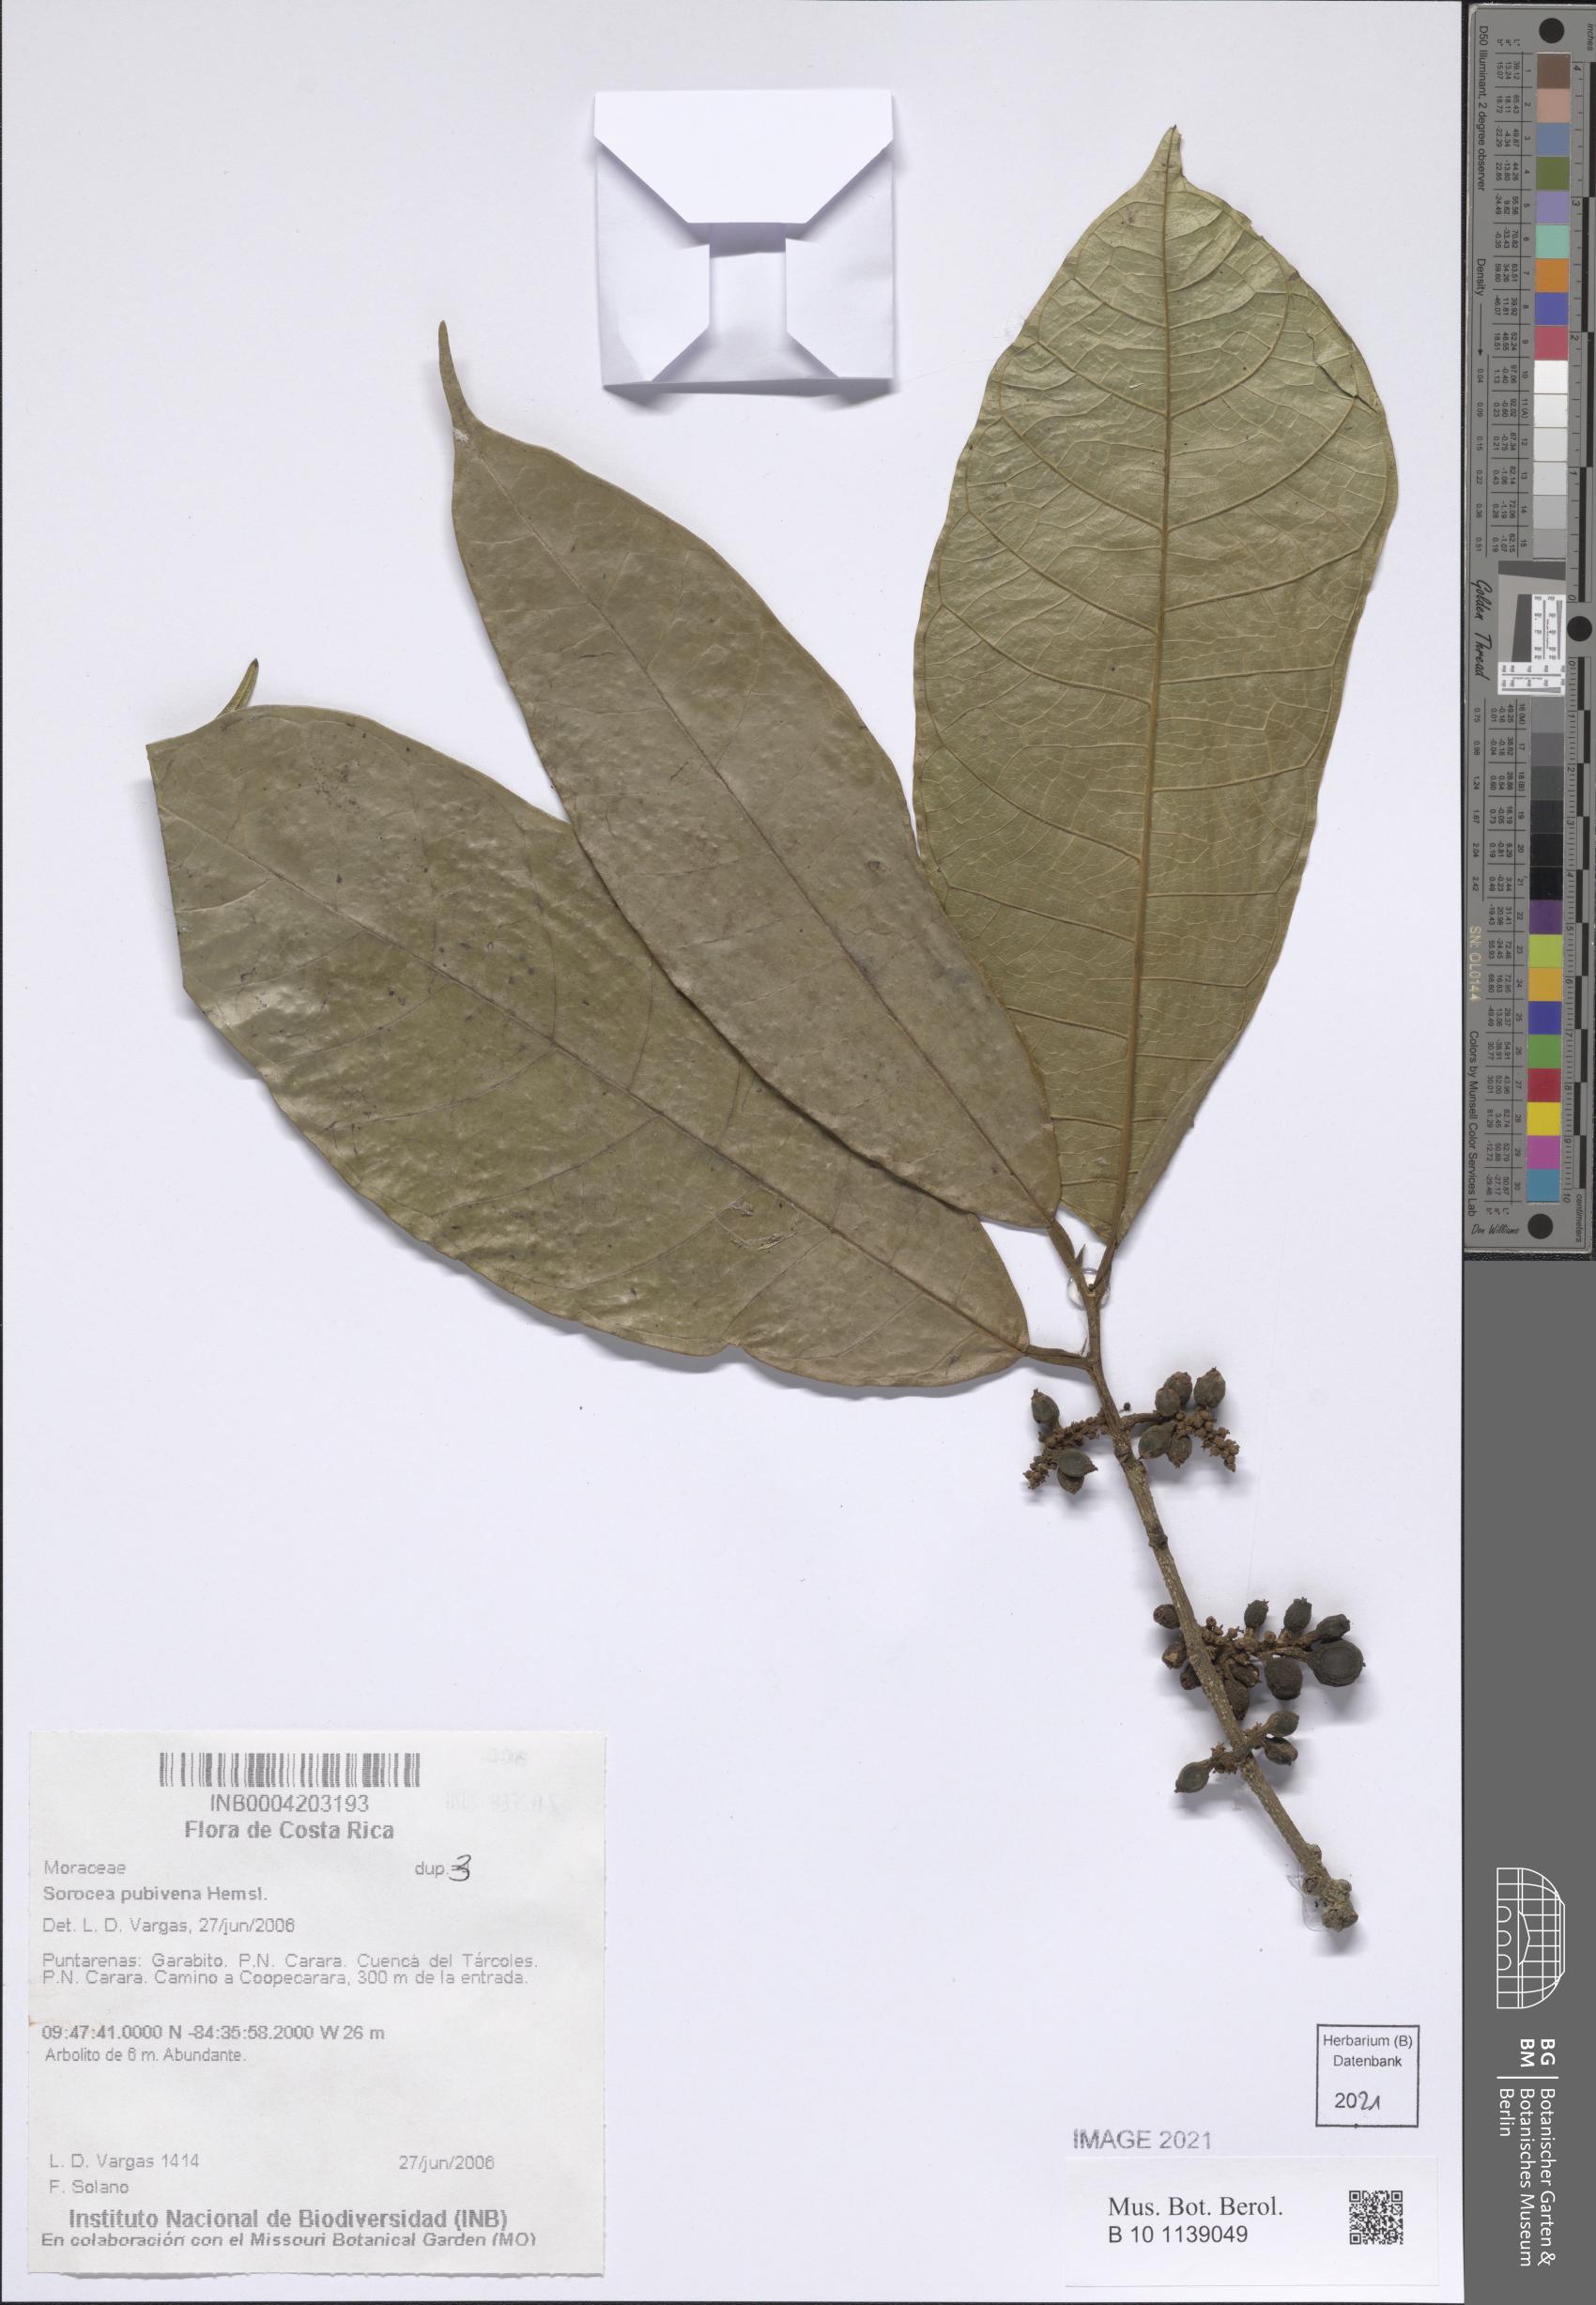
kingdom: Plantae
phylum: Tracheophyta
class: Magnoliopsida
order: Rosales
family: Moraceae
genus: Sorocea
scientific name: Sorocea pubivena
